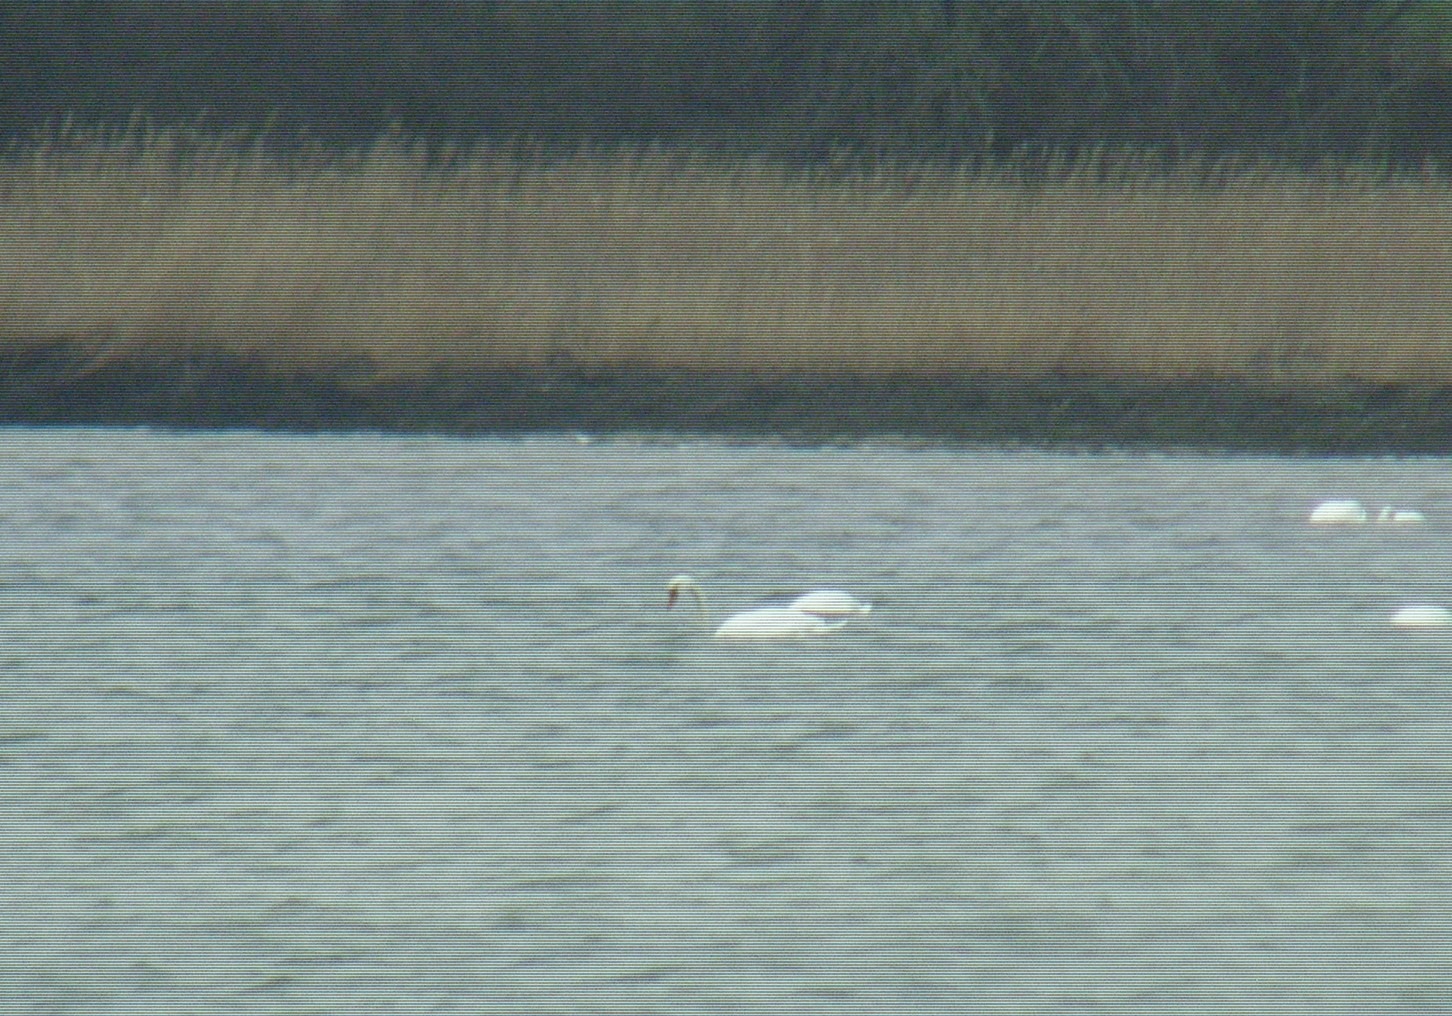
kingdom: Animalia
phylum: Chordata
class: Aves
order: Anseriformes
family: Anatidae
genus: Cygnus
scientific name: Cygnus olor
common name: Knopsvane
